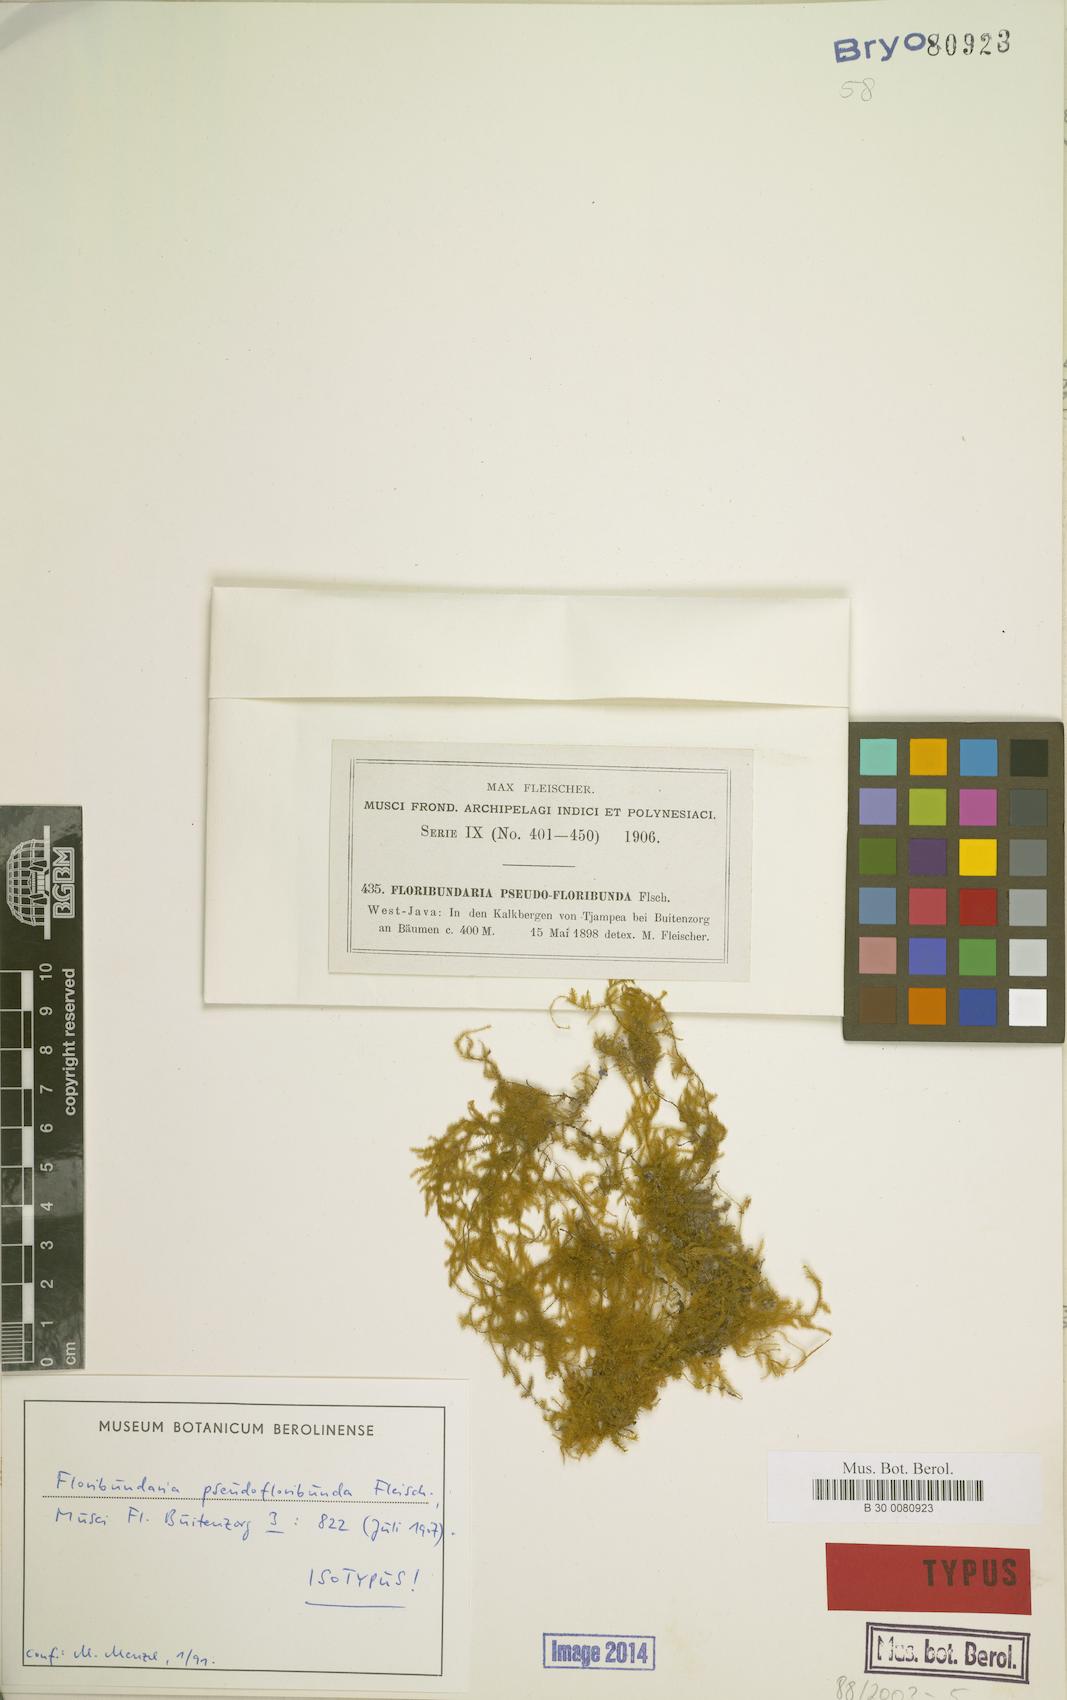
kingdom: Plantae
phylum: Bryophyta
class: Bryopsida
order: Hypnales
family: Meteoriaceae
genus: Floribundaria
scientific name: Floribundaria pseudofloribunda
